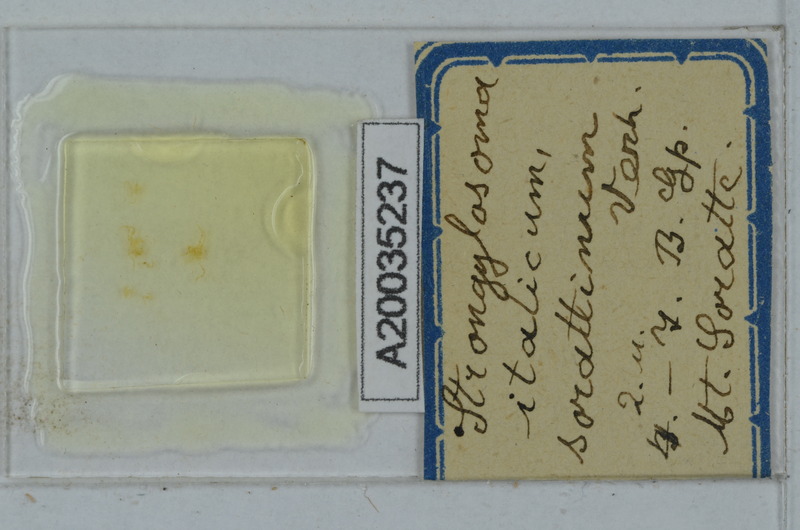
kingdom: Animalia
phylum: Arthropoda
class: Diplopoda
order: Polydesmida
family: Paradoxosomatidae
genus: Strongylosoma
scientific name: Strongylosoma italica
